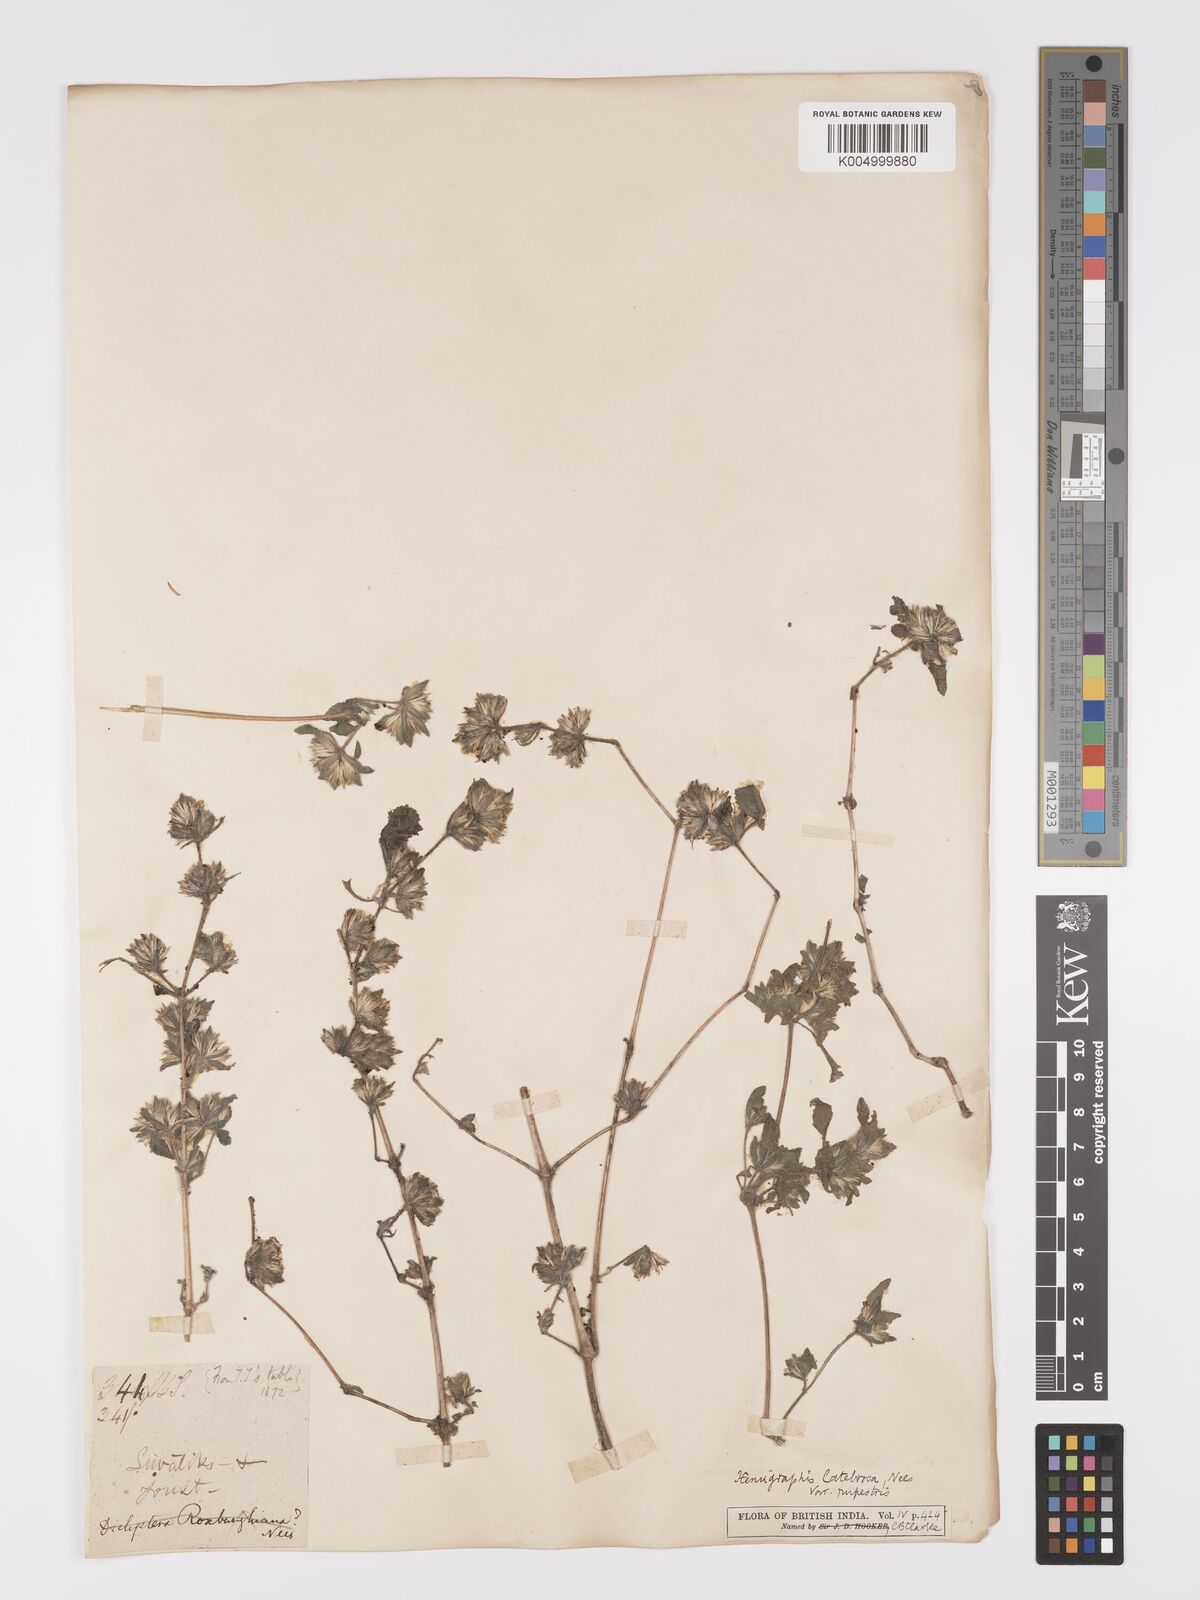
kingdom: Plantae
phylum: Tracheophyta
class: Magnoliopsida
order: Lamiales
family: Acanthaceae
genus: Strobilanthes
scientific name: Strobilanthes pavala
